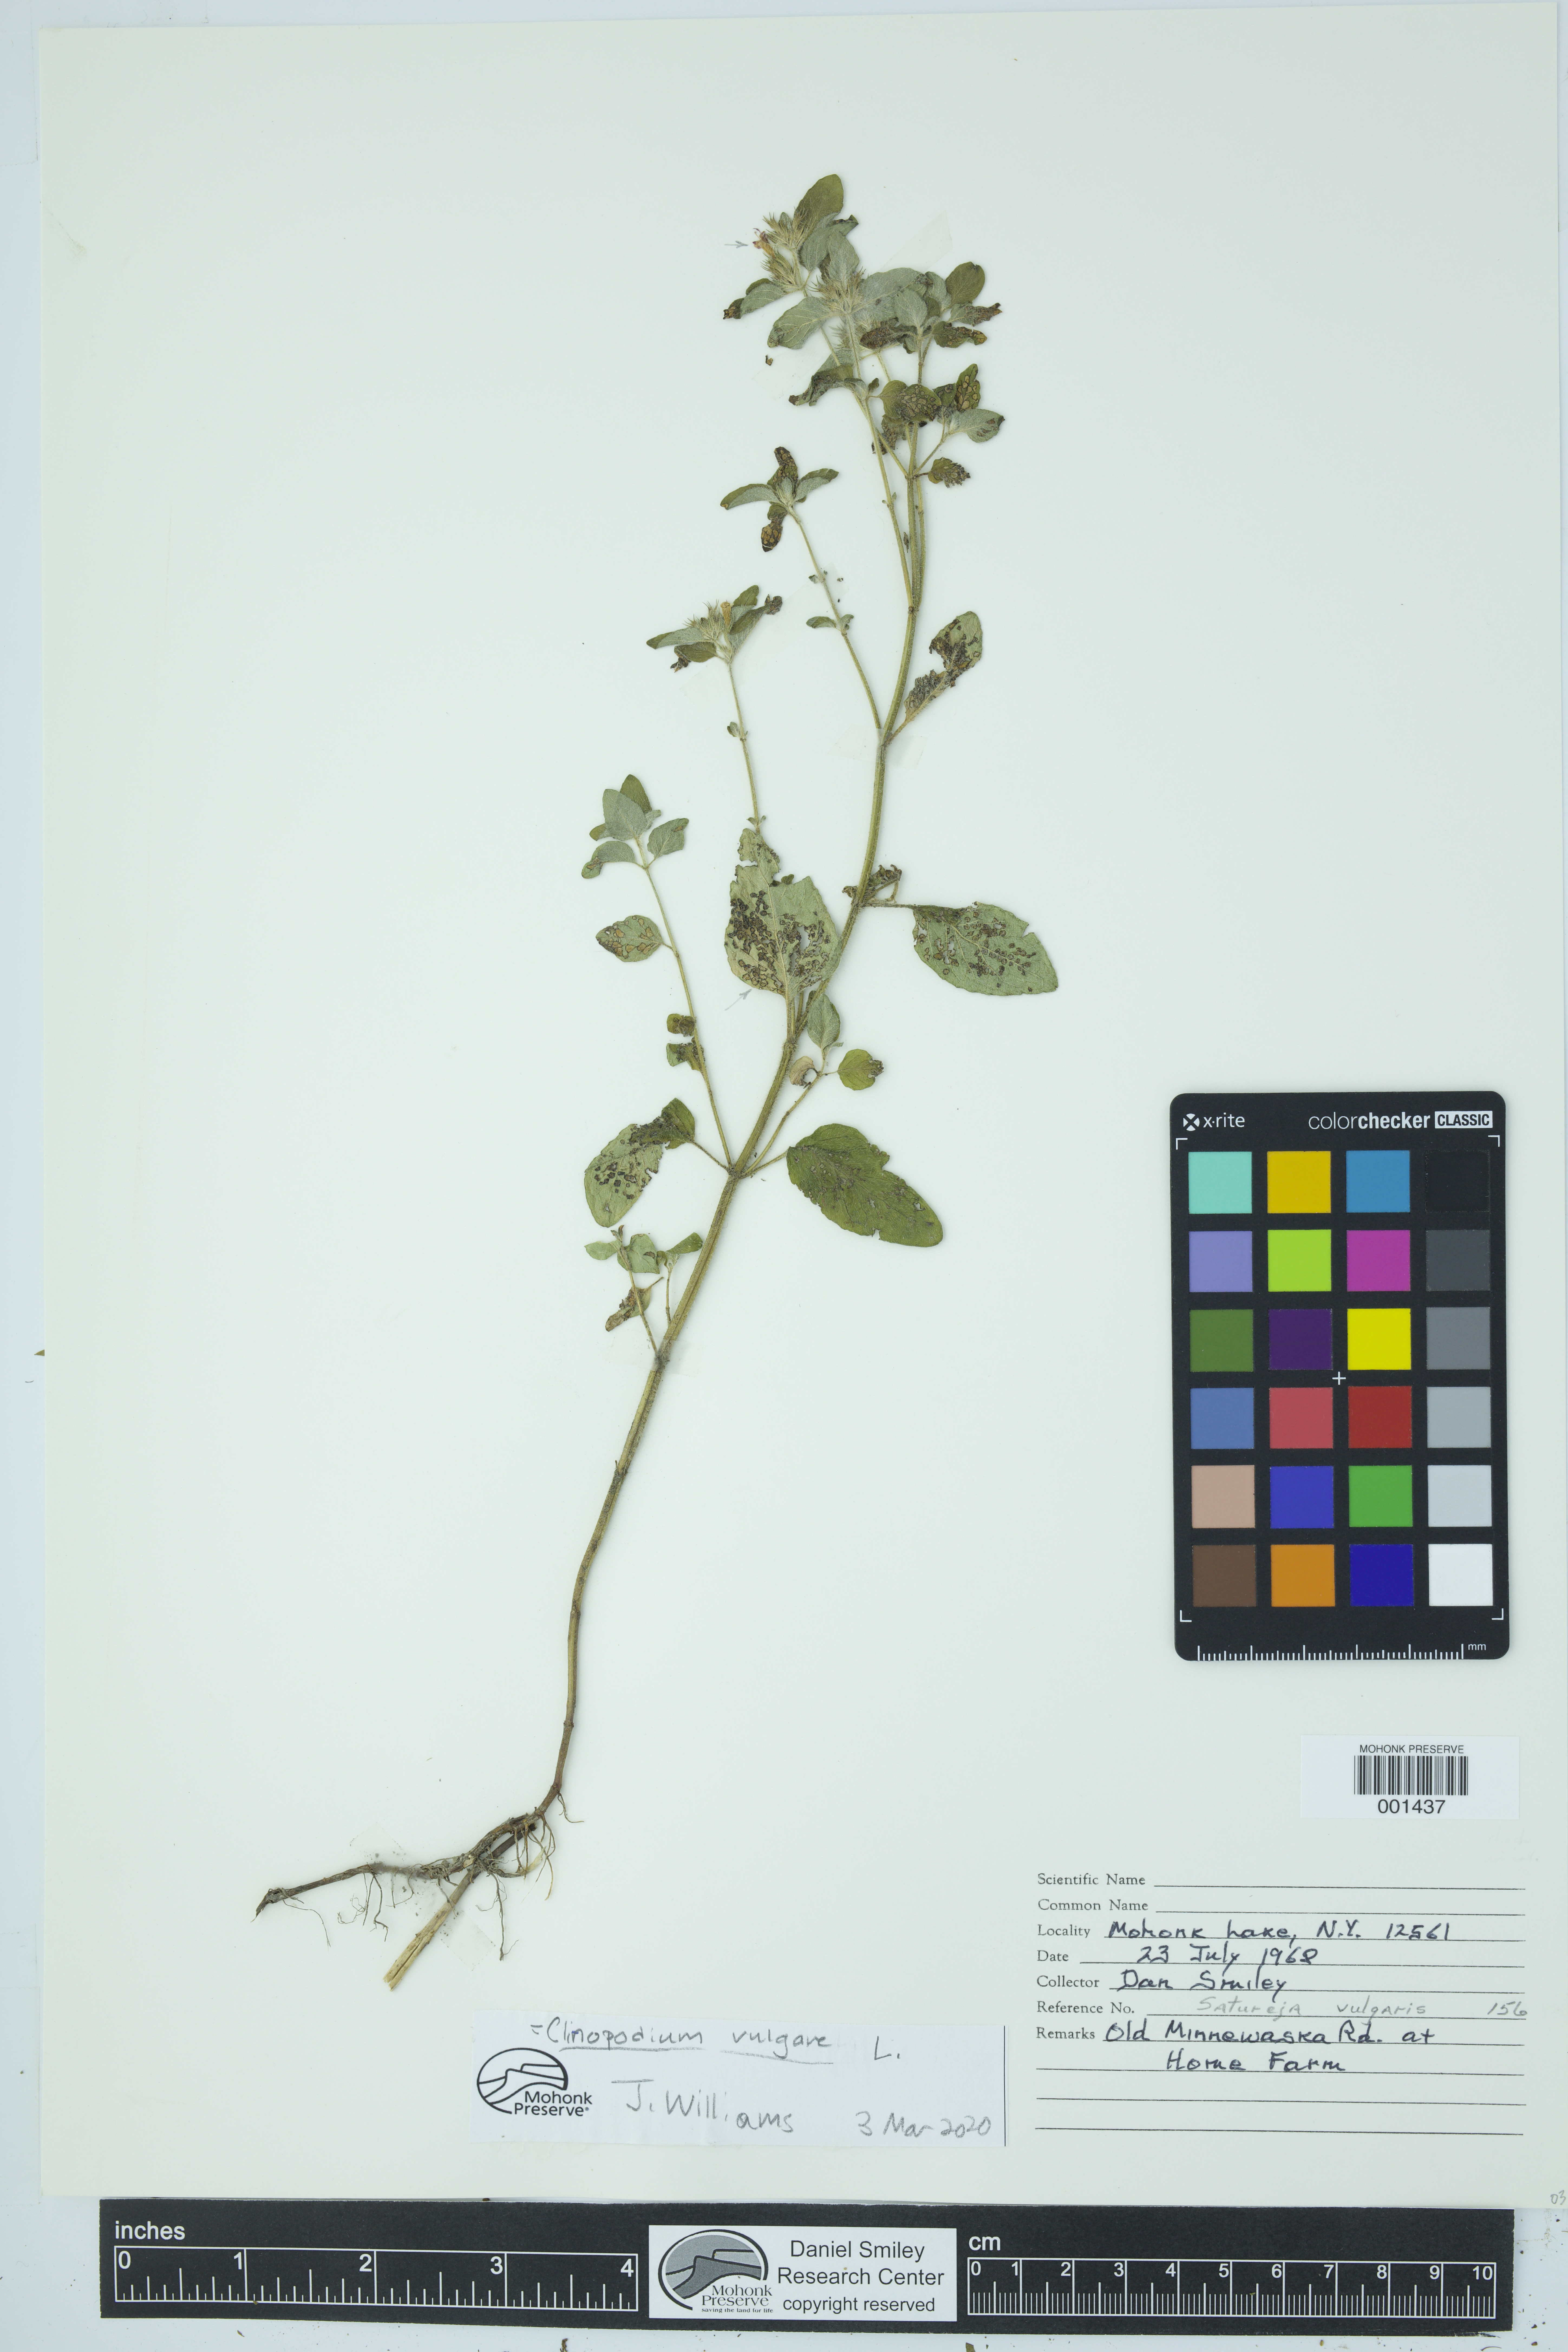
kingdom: Plantae
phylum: Tracheophyta
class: Magnoliopsida
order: Lamiales
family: Lamiaceae
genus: Clinopodium
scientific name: Clinopodium vulgare
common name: Wild basil
